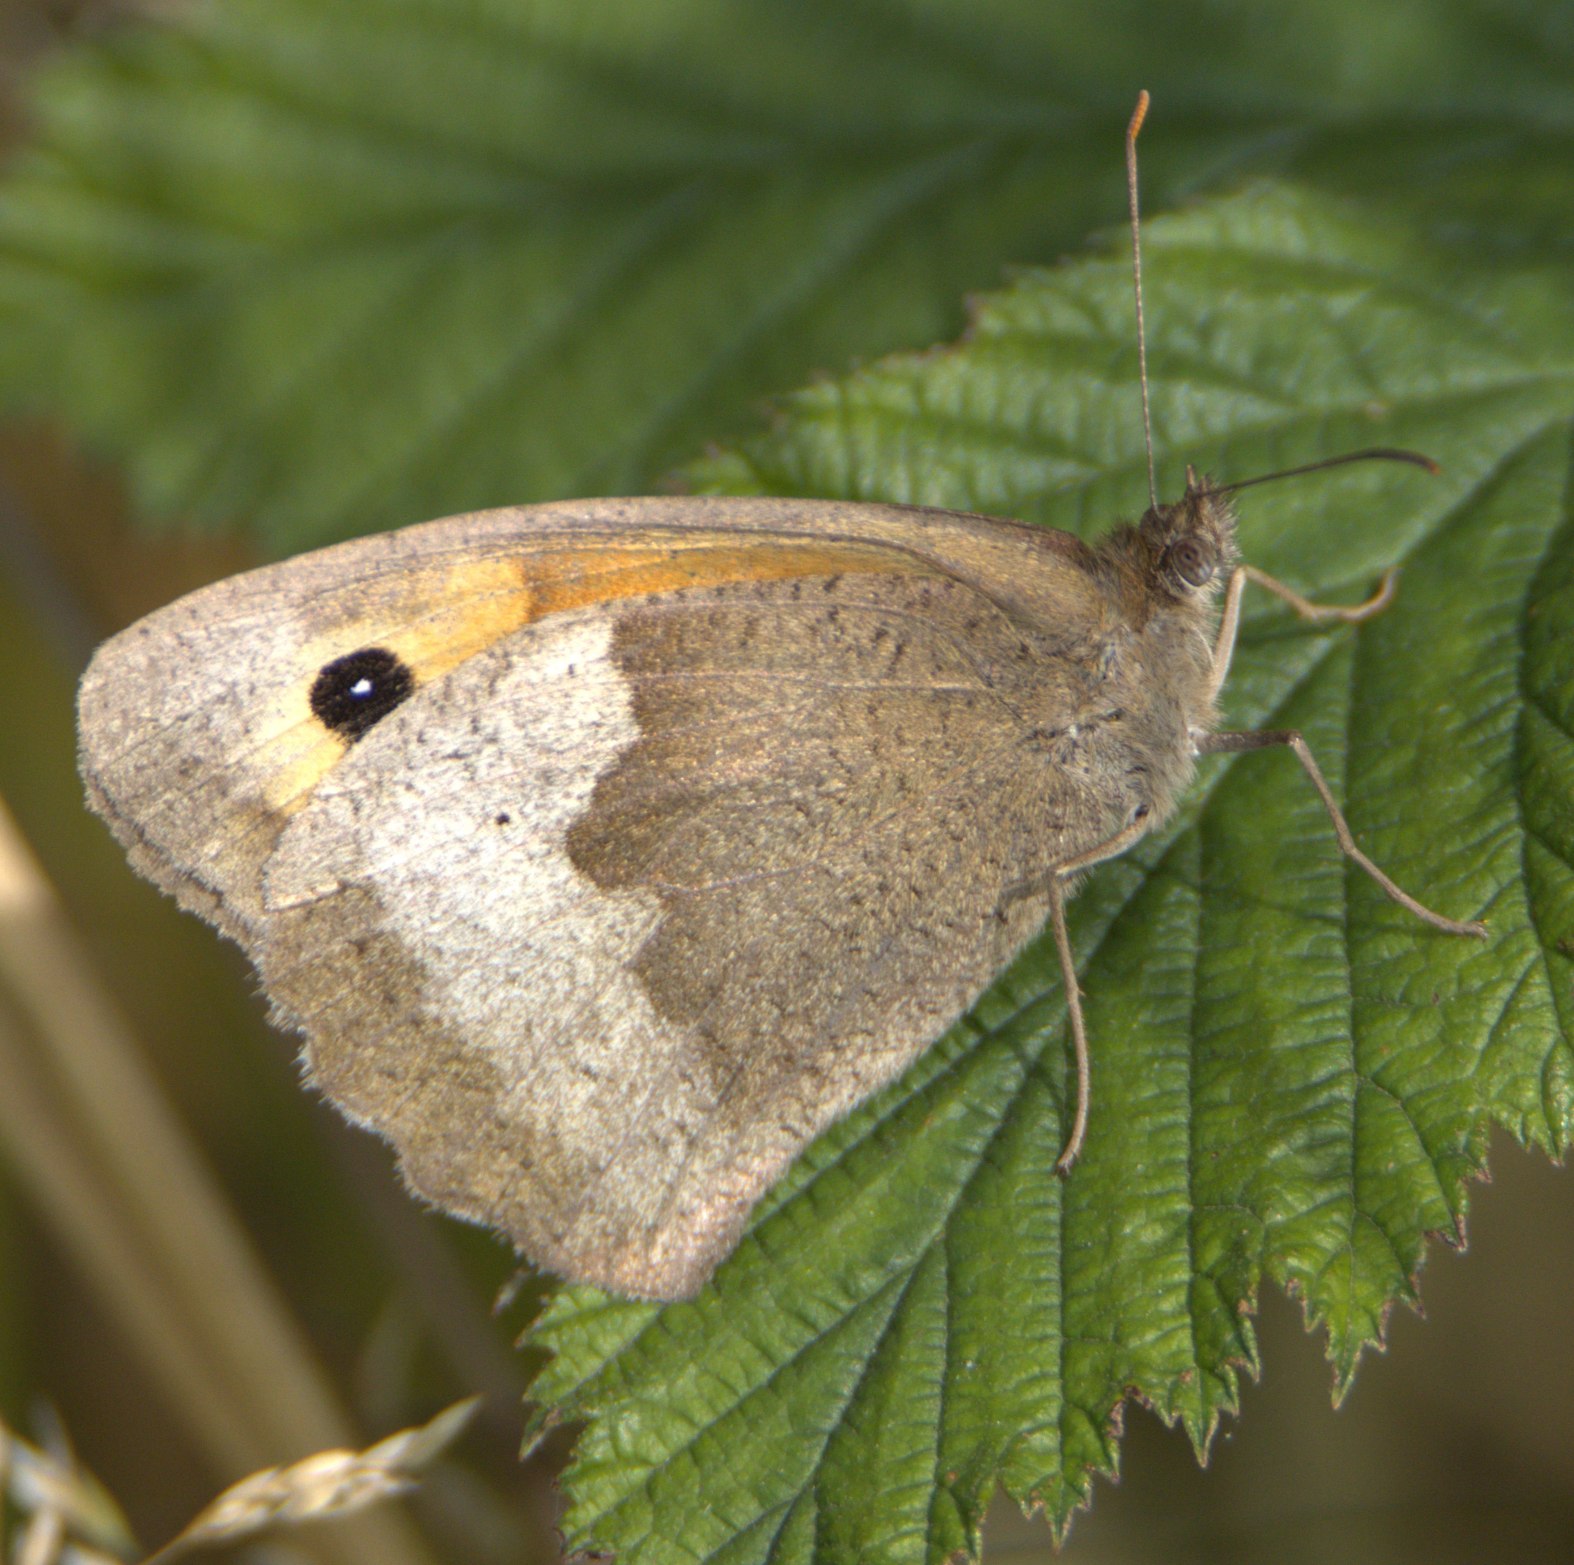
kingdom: Animalia
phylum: Arthropoda
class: Insecta
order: Lepidoptera
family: Nymphalidae
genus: Maniola
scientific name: Maniola jurtina
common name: Græsrandøje
